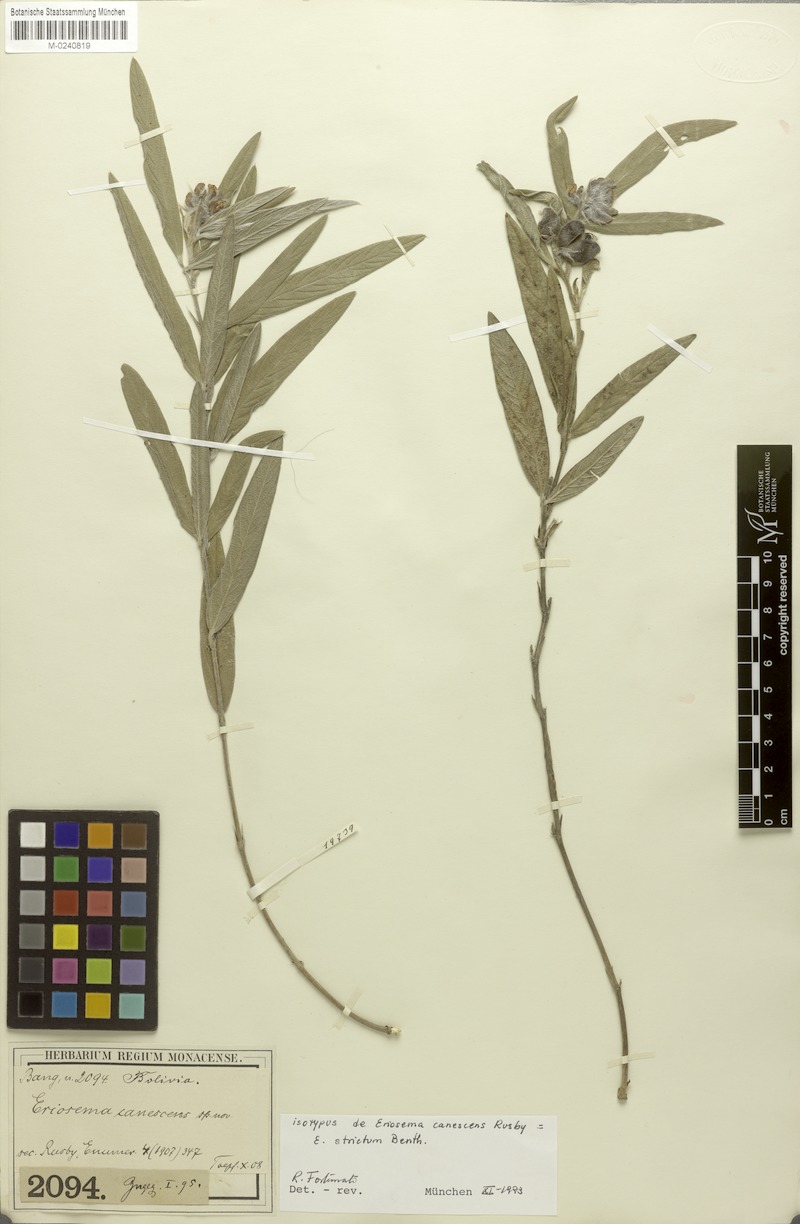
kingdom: Plantae
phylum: Tracheophyta
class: Magnoliopsida
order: Fabales
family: Fabaceae
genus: Eriosema
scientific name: Eriosema strictum
